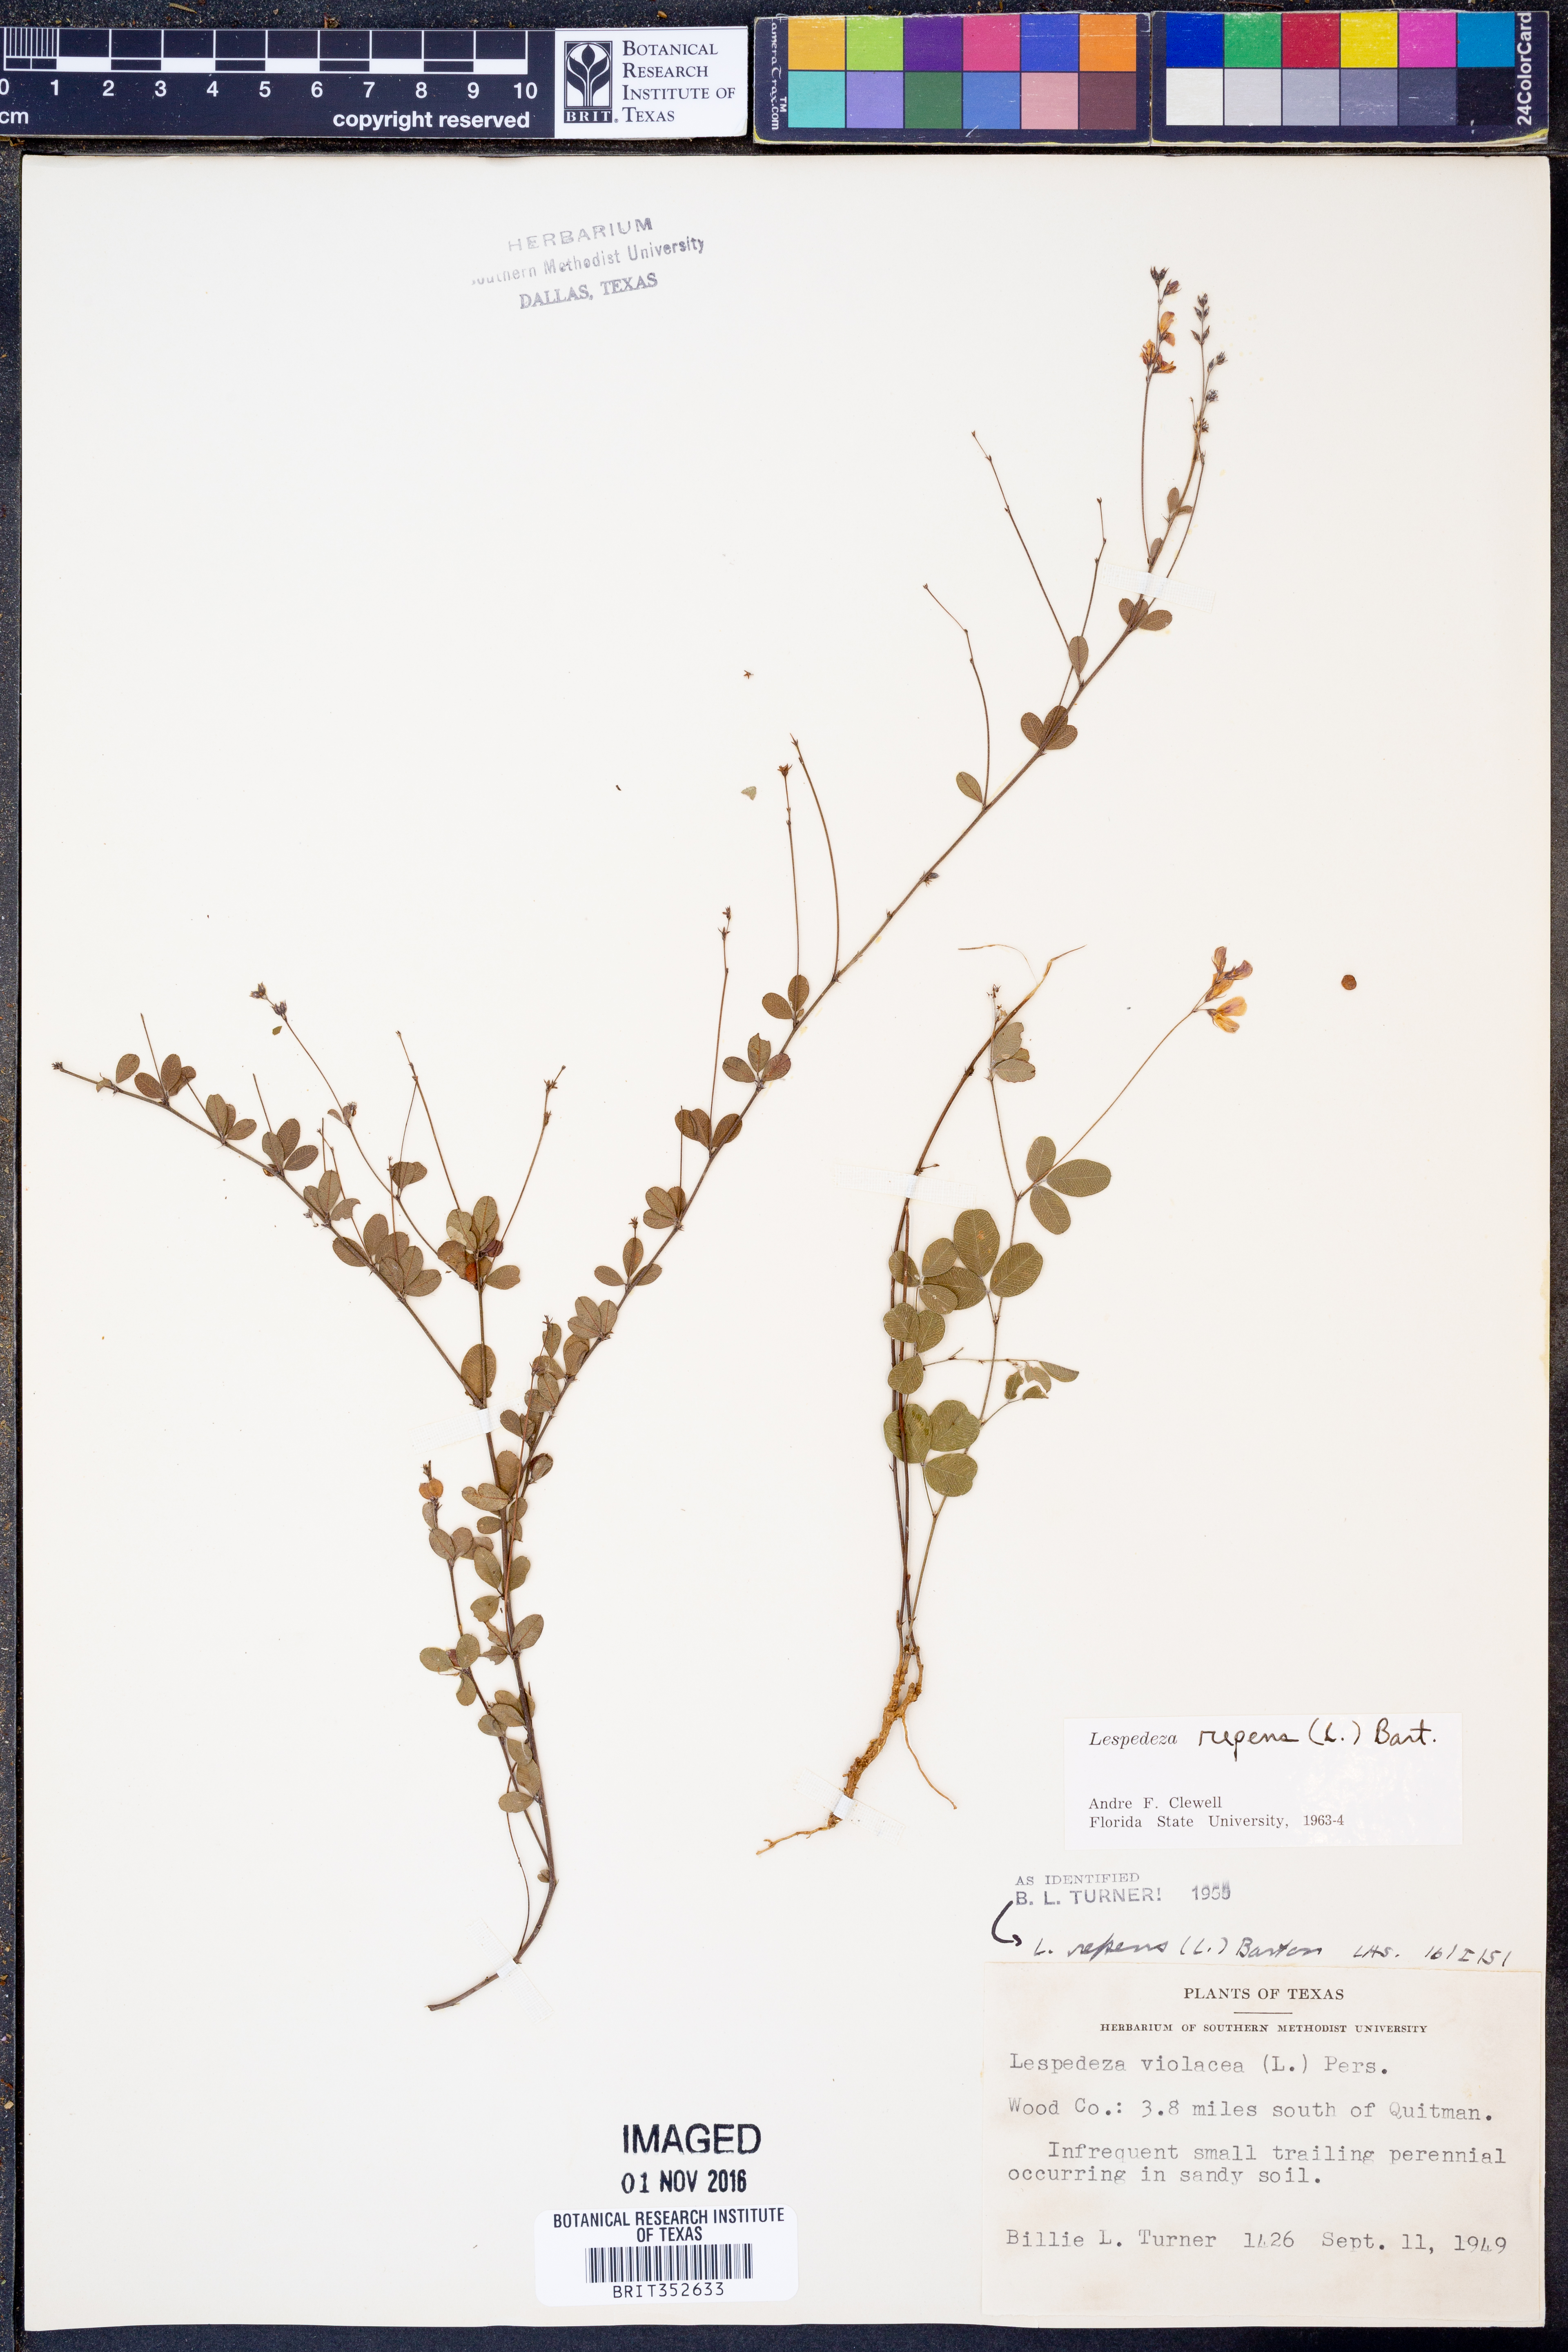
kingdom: Plantae
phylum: Tracheophyta
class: Magnoliopsida
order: Fabales
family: Fabaceae
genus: Lespedeza
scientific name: Lespedeza repens
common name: Creeping bush-clover
